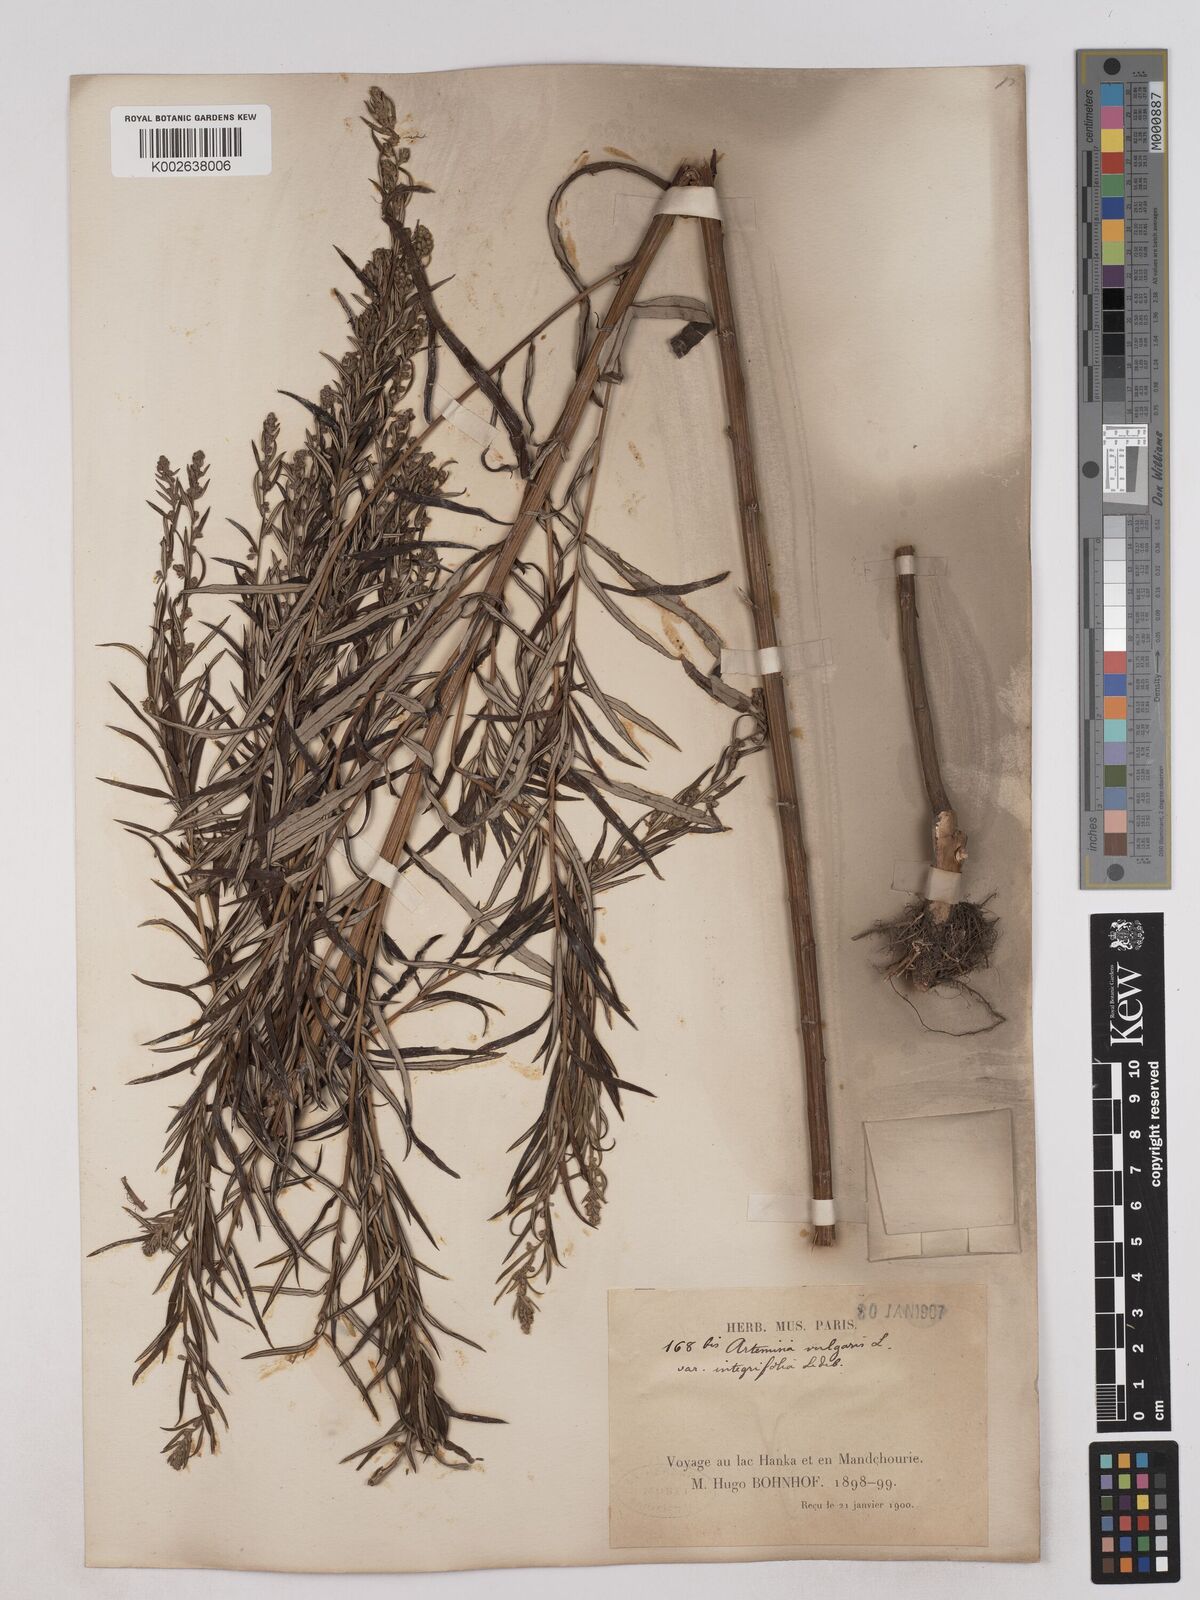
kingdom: Plantae
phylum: Tracheophyta
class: Magnoliopsida
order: Asterales
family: Asteraceae
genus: Artemisia
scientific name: Artemisia integrifolia
